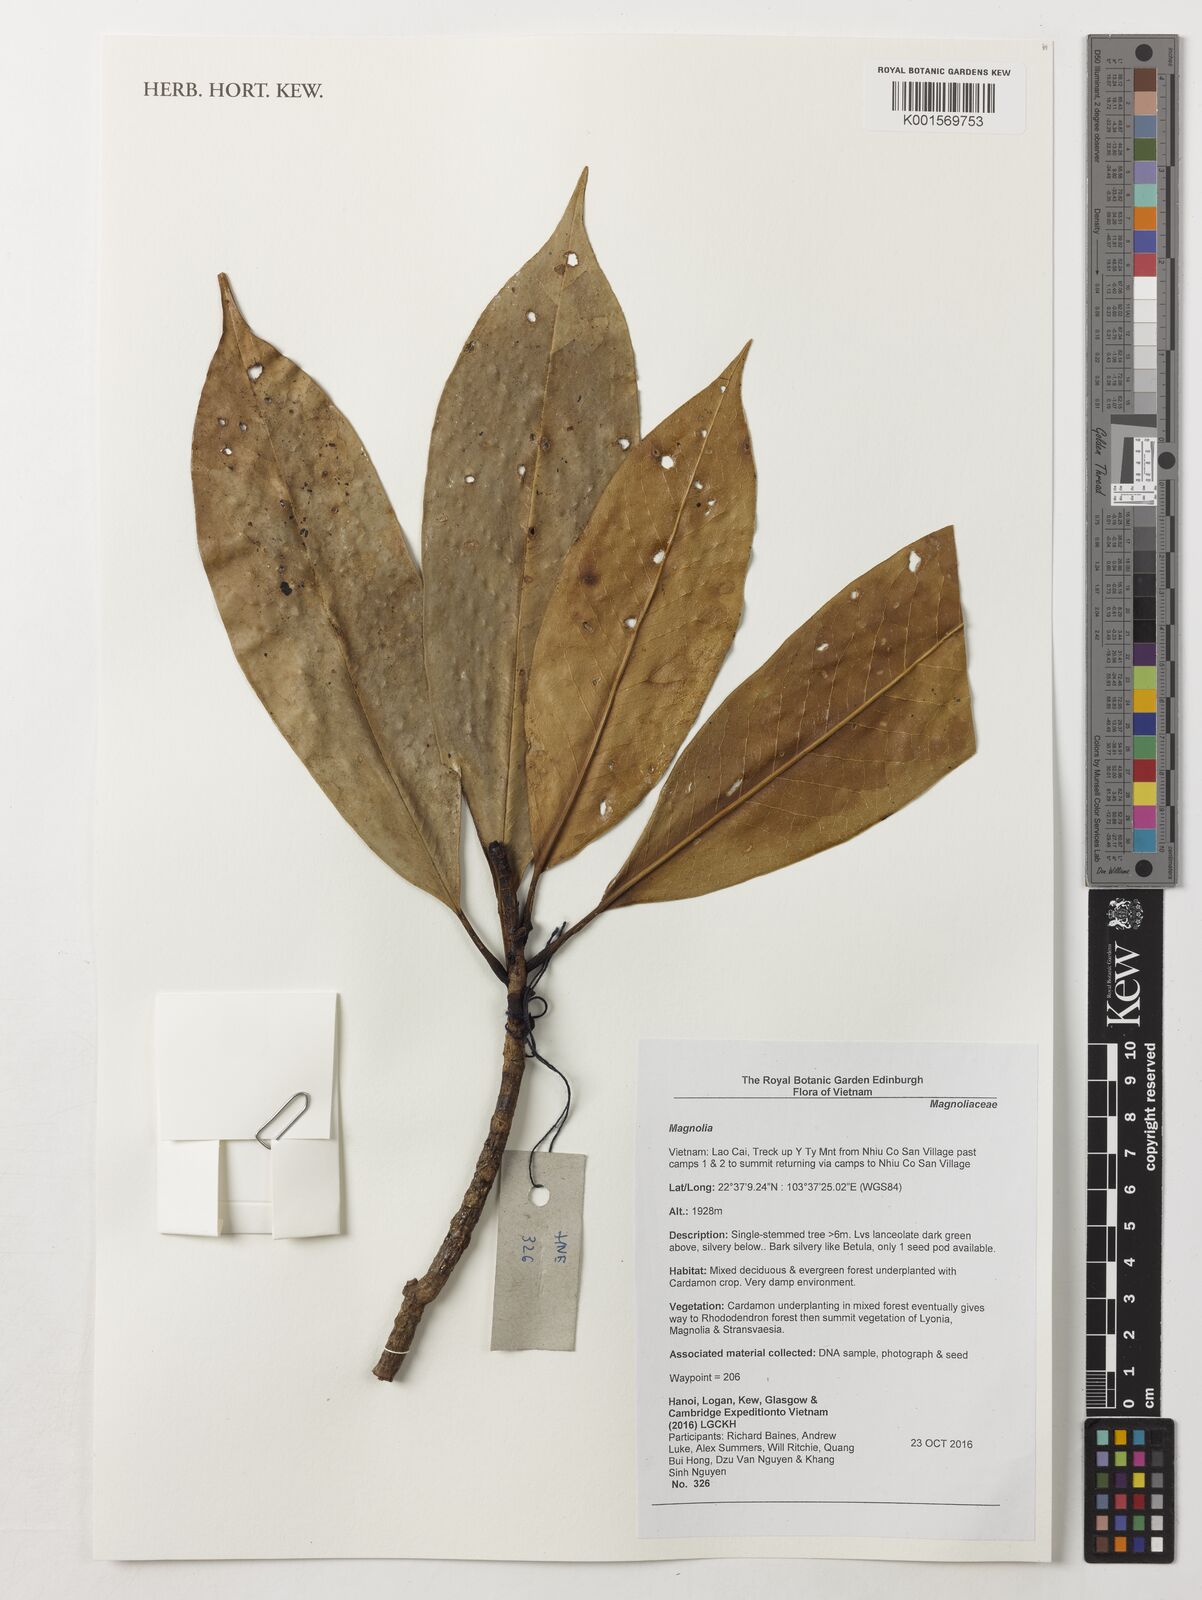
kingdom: Plantae
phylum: Tracheophyta
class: Magnoliopsida
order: Magnoliales
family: Magnoliaceae
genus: Magnolia
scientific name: Magnolia
